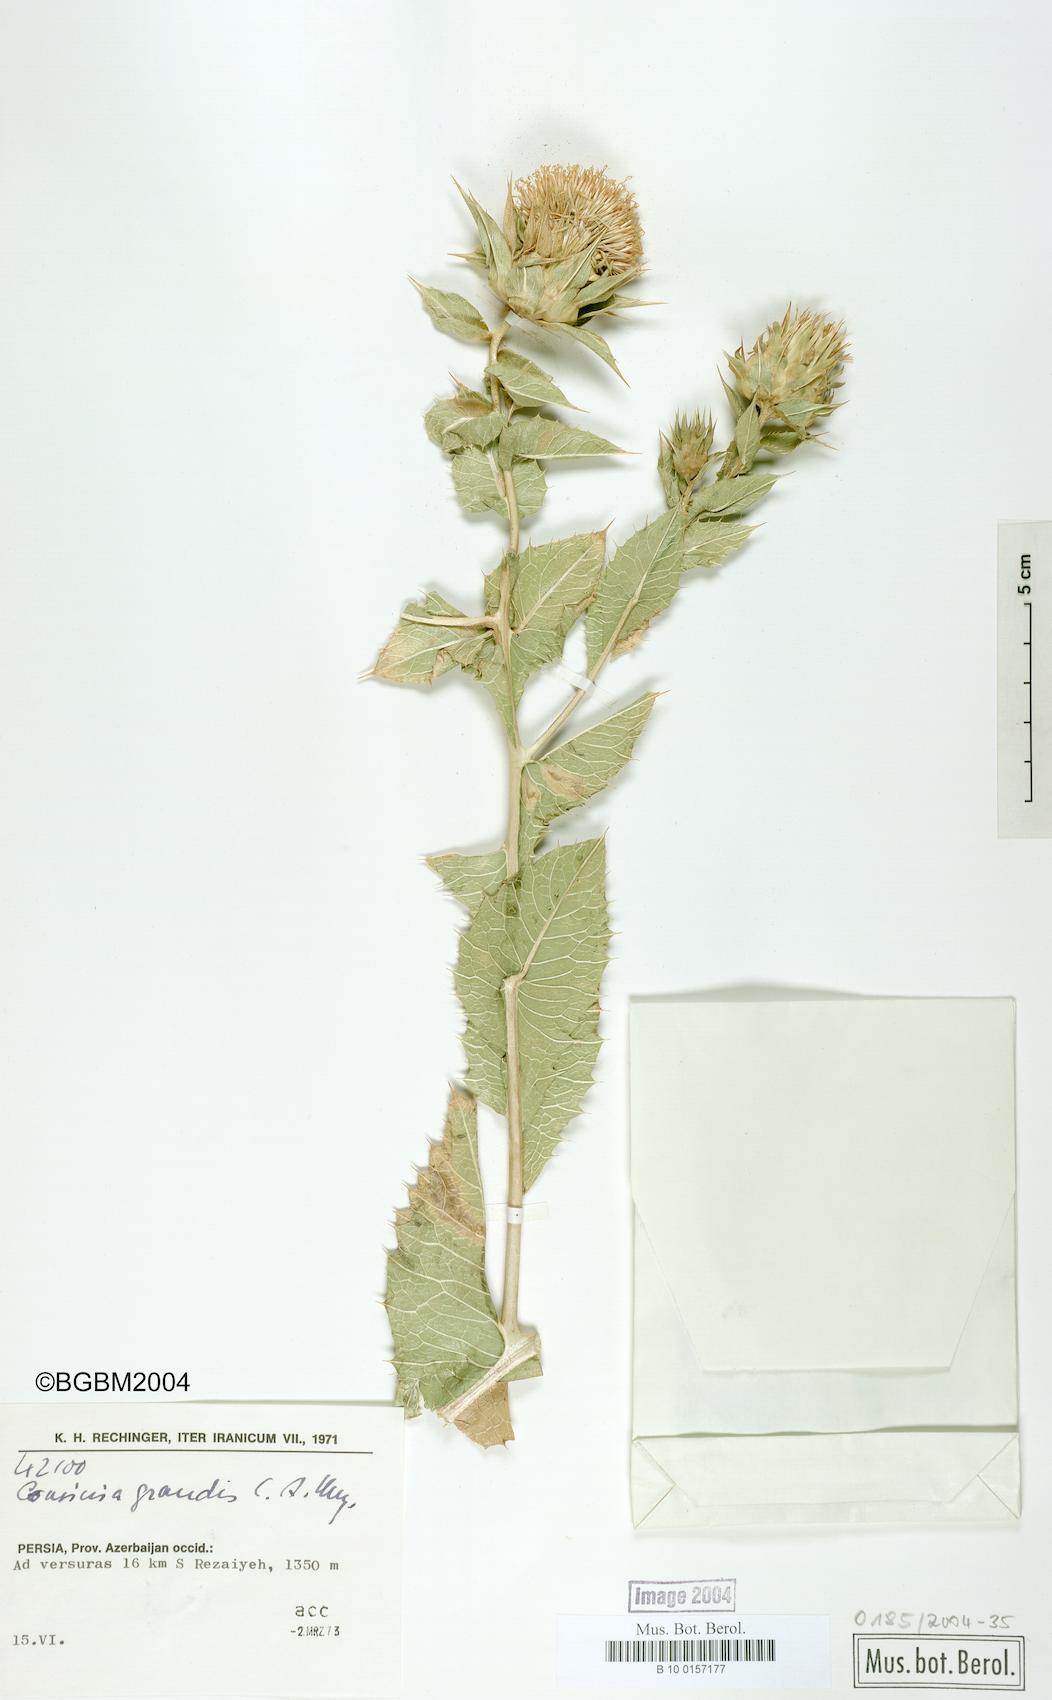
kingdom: Plantae
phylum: Tracheophyta
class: Magnoliopsida
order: Asterales
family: Asteraceae
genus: Cousinia
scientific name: Cousinia grandis
